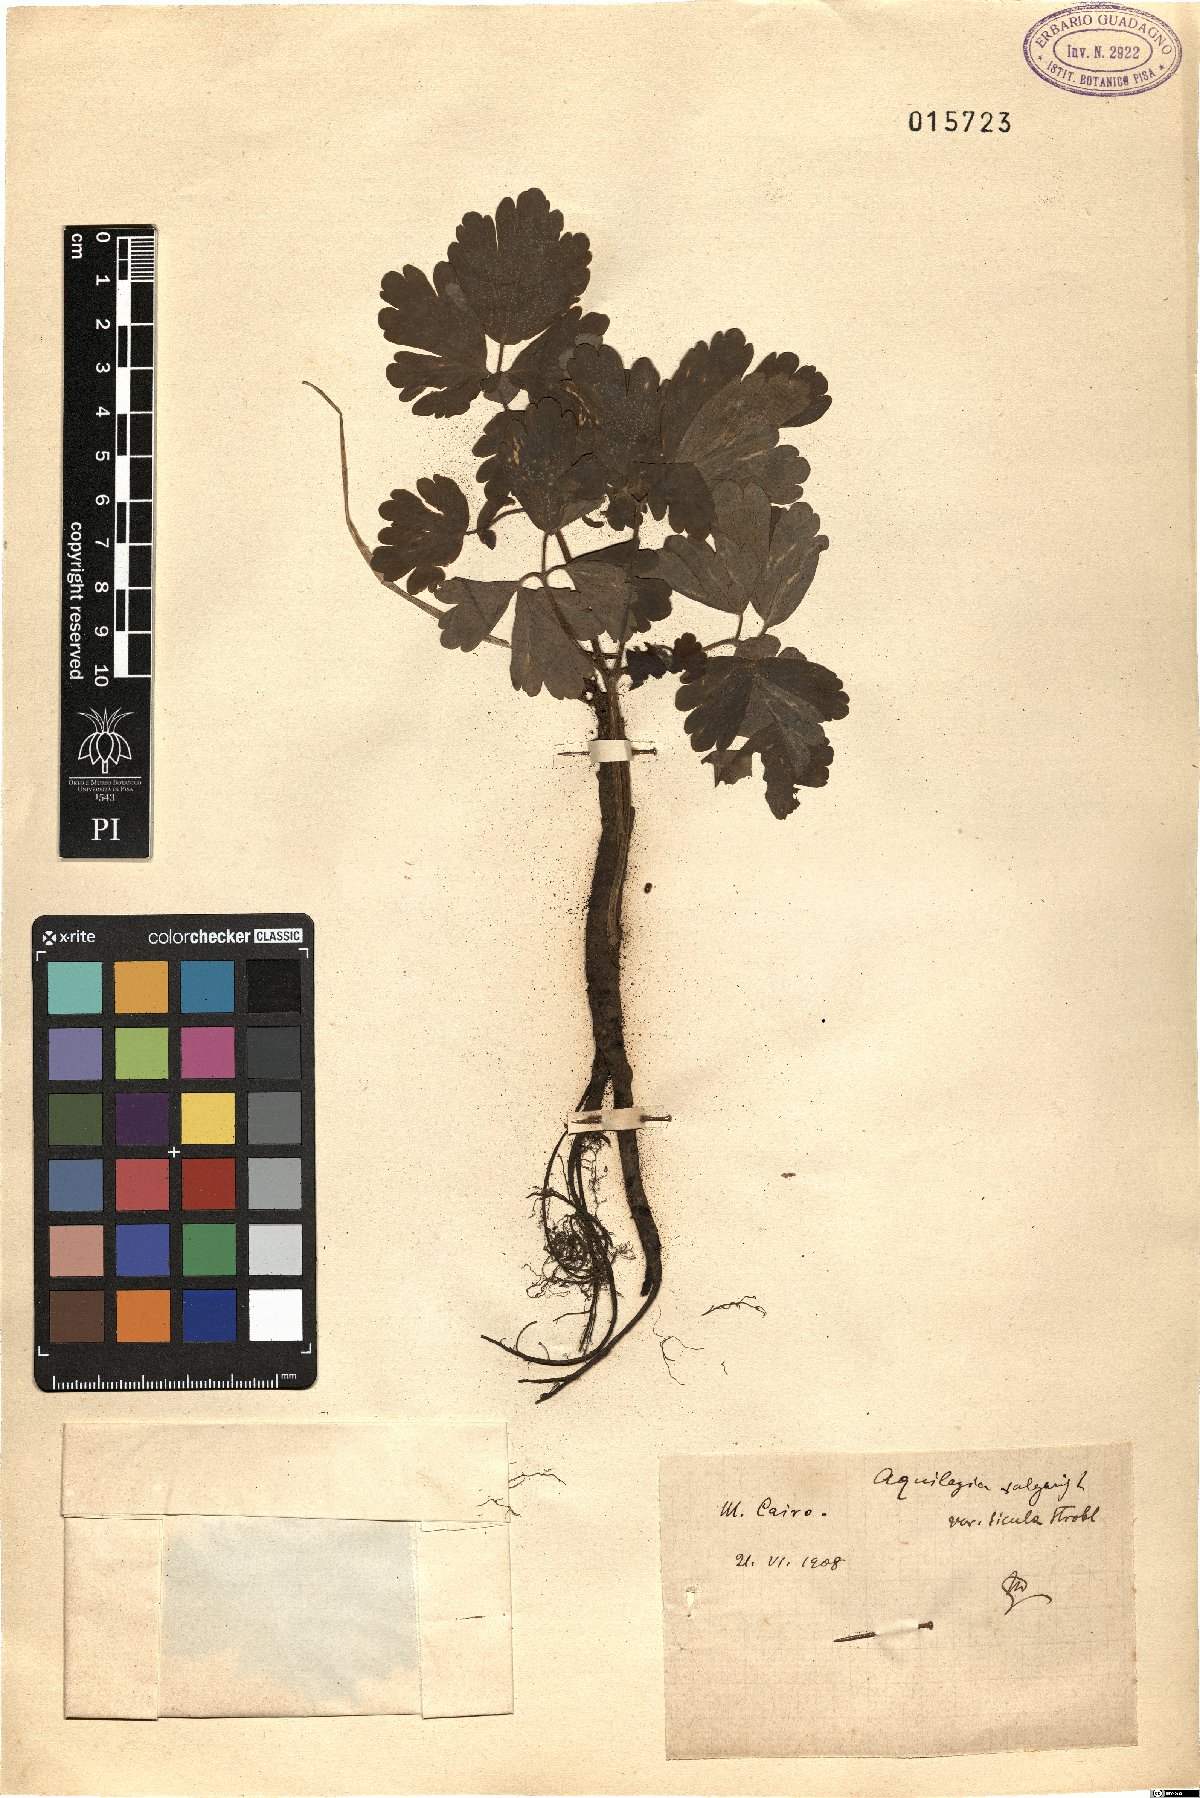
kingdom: Plantae
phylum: Tracheophyta
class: Magnoliopsida
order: Ranunculales
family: Ranunculaceae
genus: Aquilegia
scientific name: Aquilegia dumeticola
